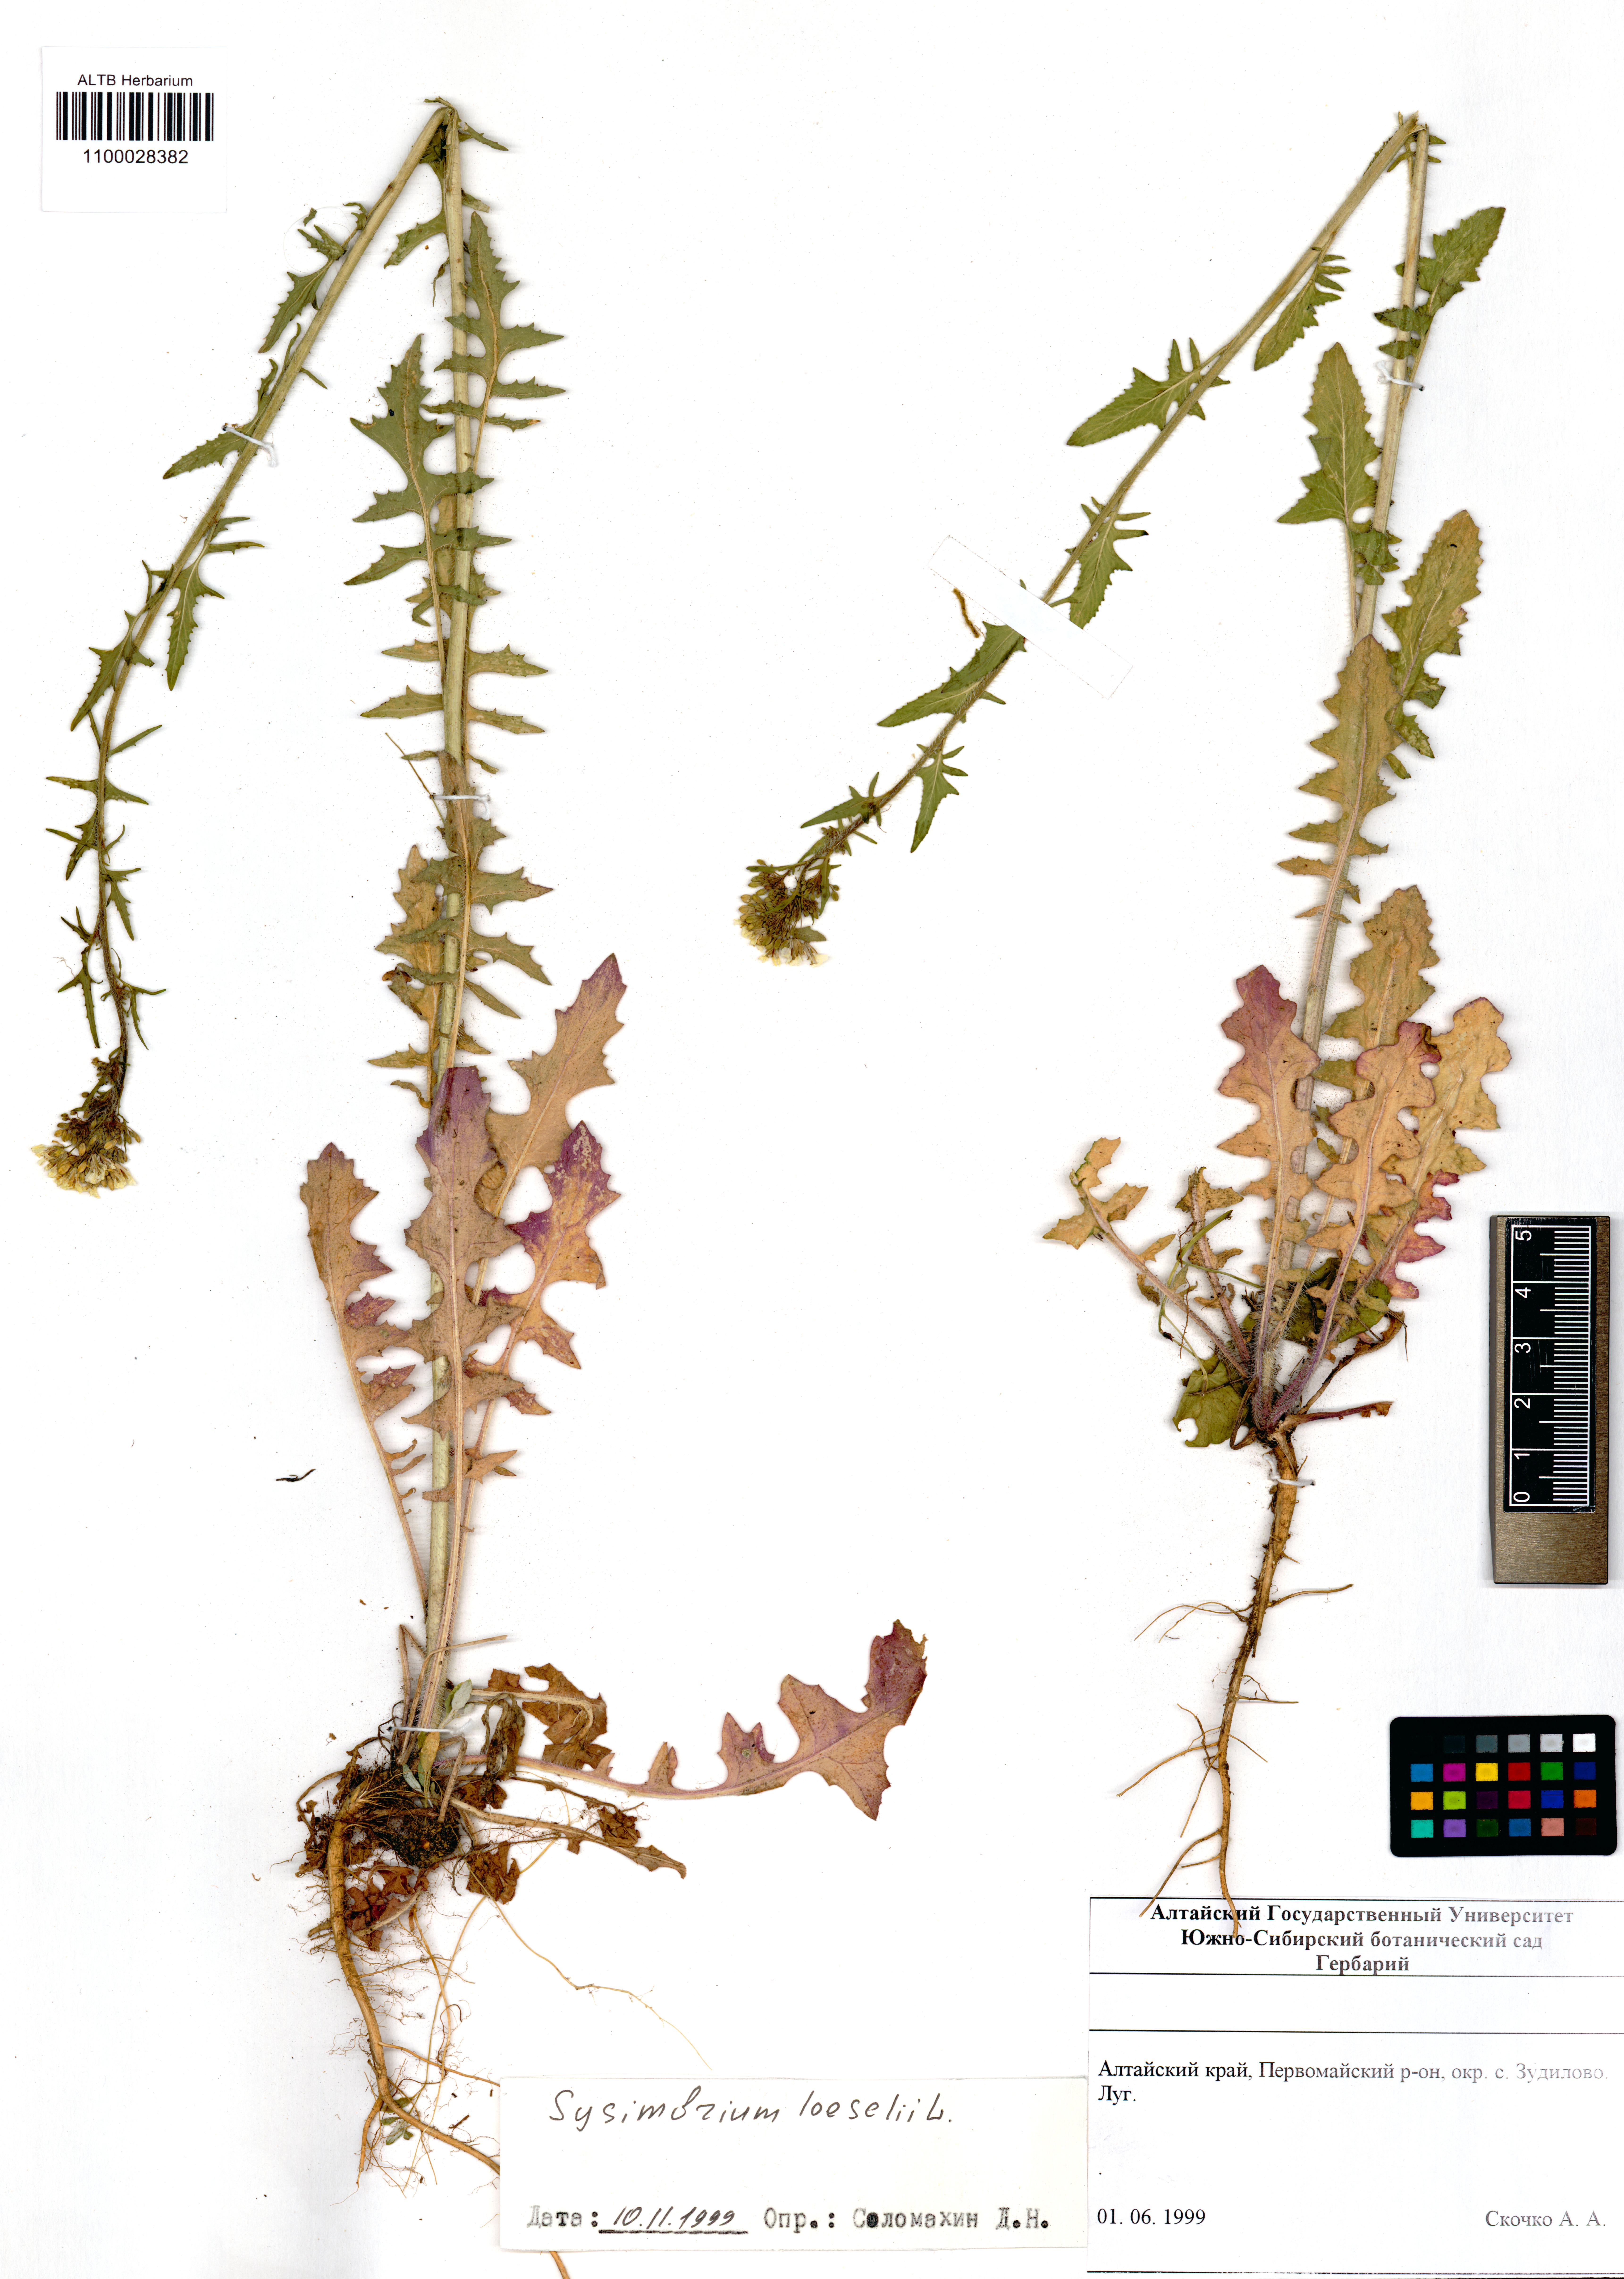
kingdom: Plantae
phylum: Tracheophyta
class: Magnoliopsida
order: Brassicales
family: Brassicaceae
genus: Sisymbrium
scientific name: Sisymbrium loeselii
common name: False london-rocket
